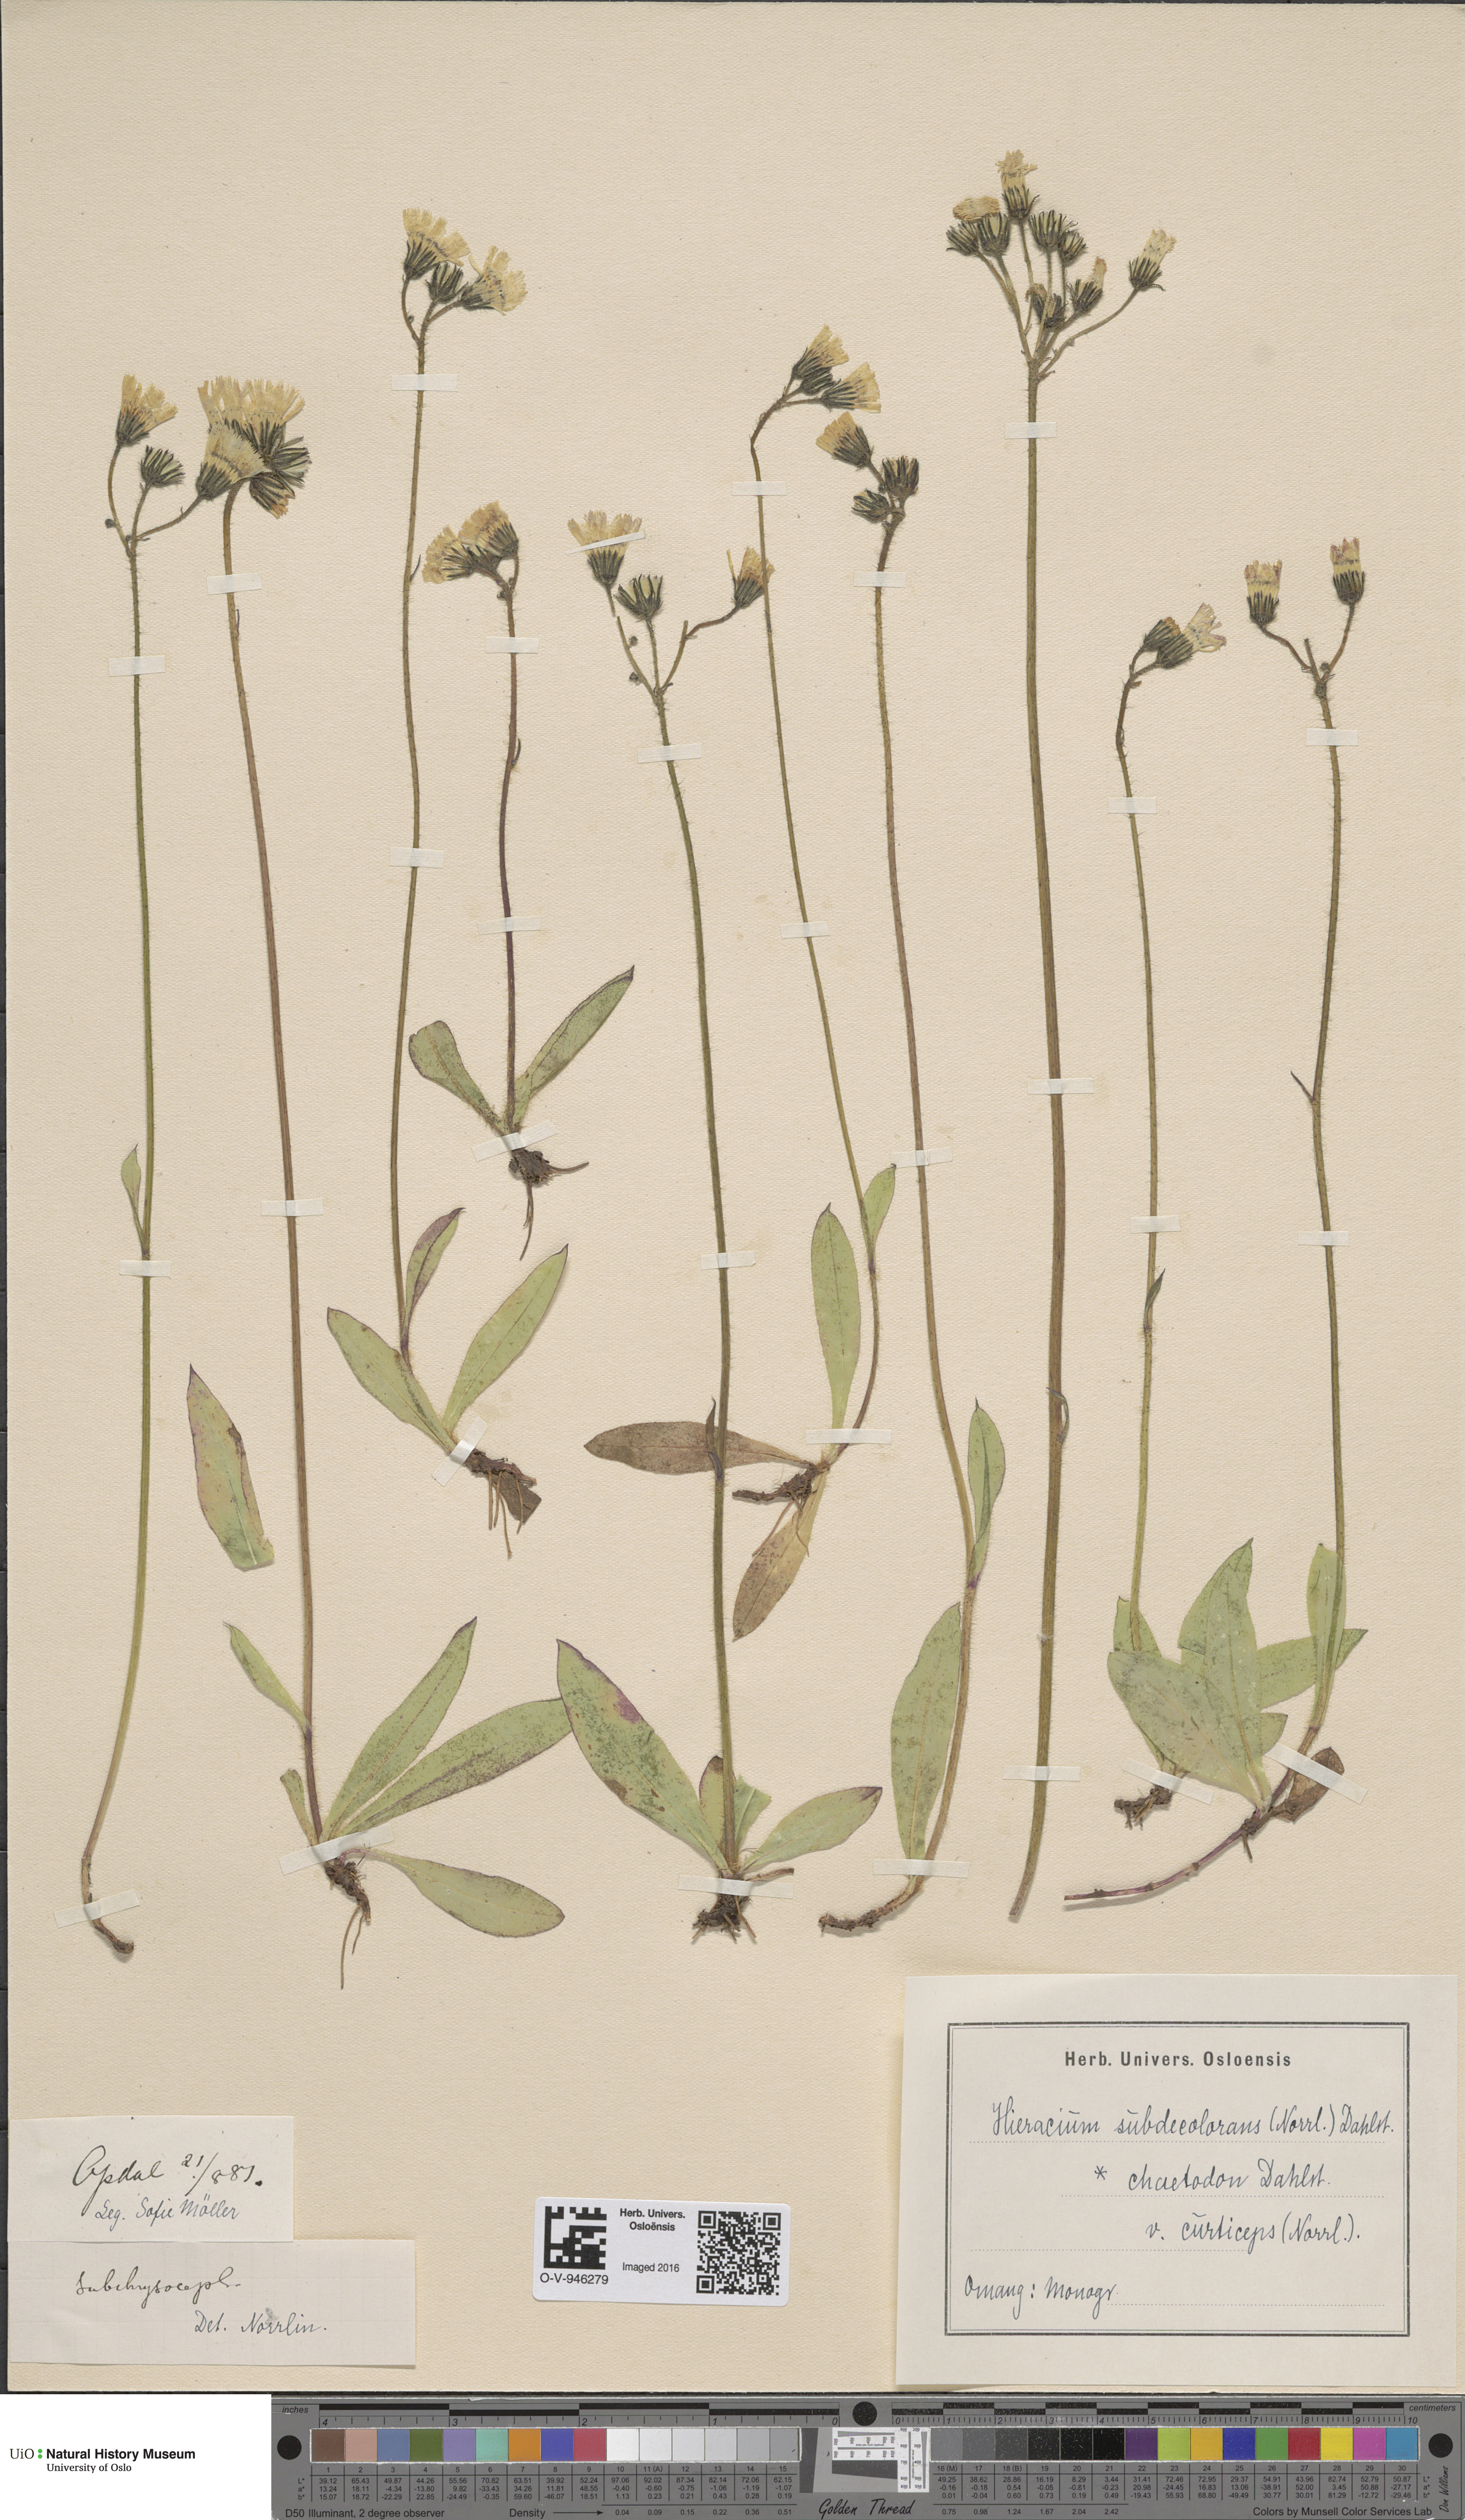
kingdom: Plantae
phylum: Tracheophyta
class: Magnoliopsida
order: Asterales
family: Asteraceae
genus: Pilosella
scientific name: Pilosella subdecolorans
